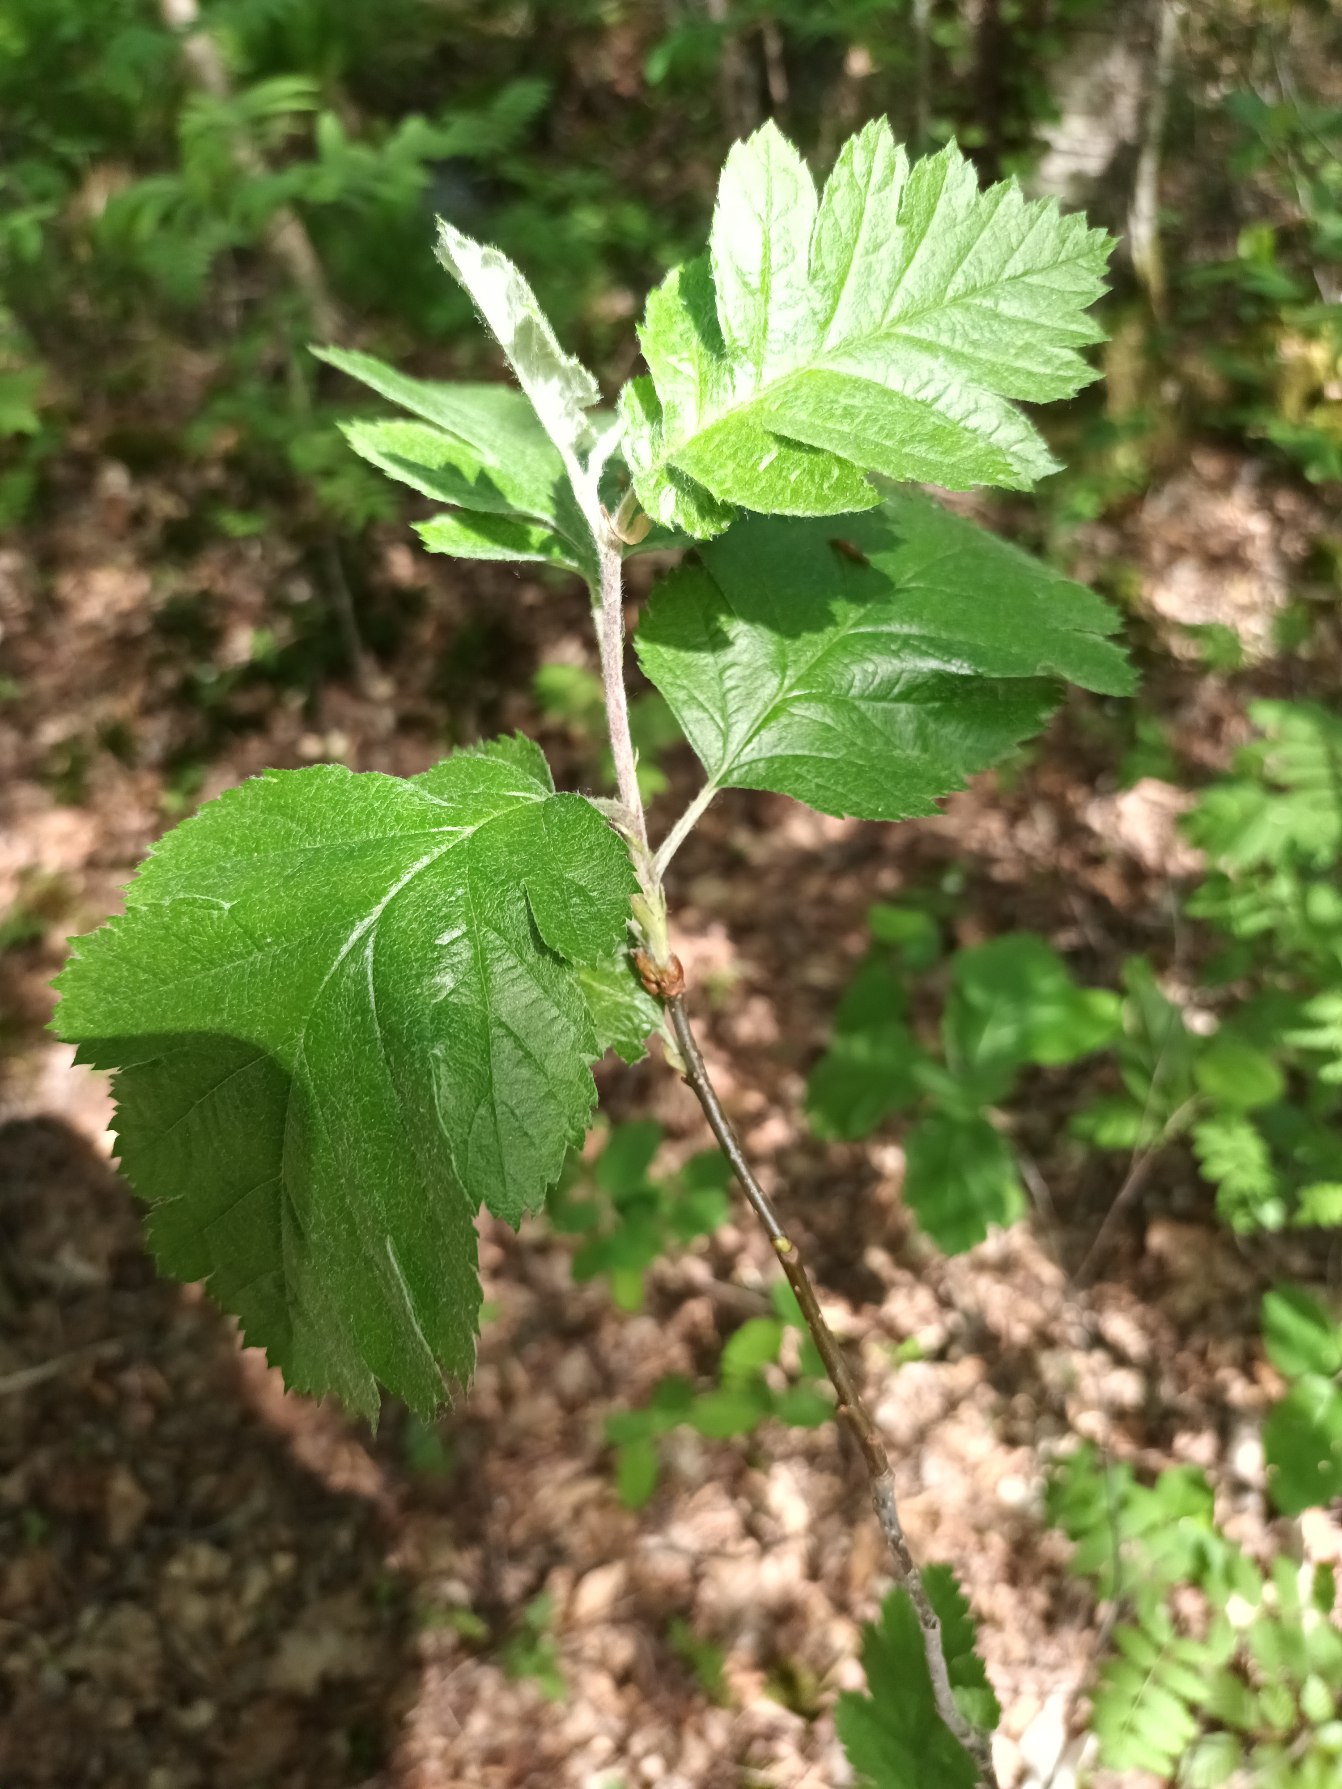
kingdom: Plantae
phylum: Tracheophyta
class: Magnoliopsida
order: Rosales
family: Rosaceae
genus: Scandosorbus
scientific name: Scandosorbus intermedia
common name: Selje-røn
